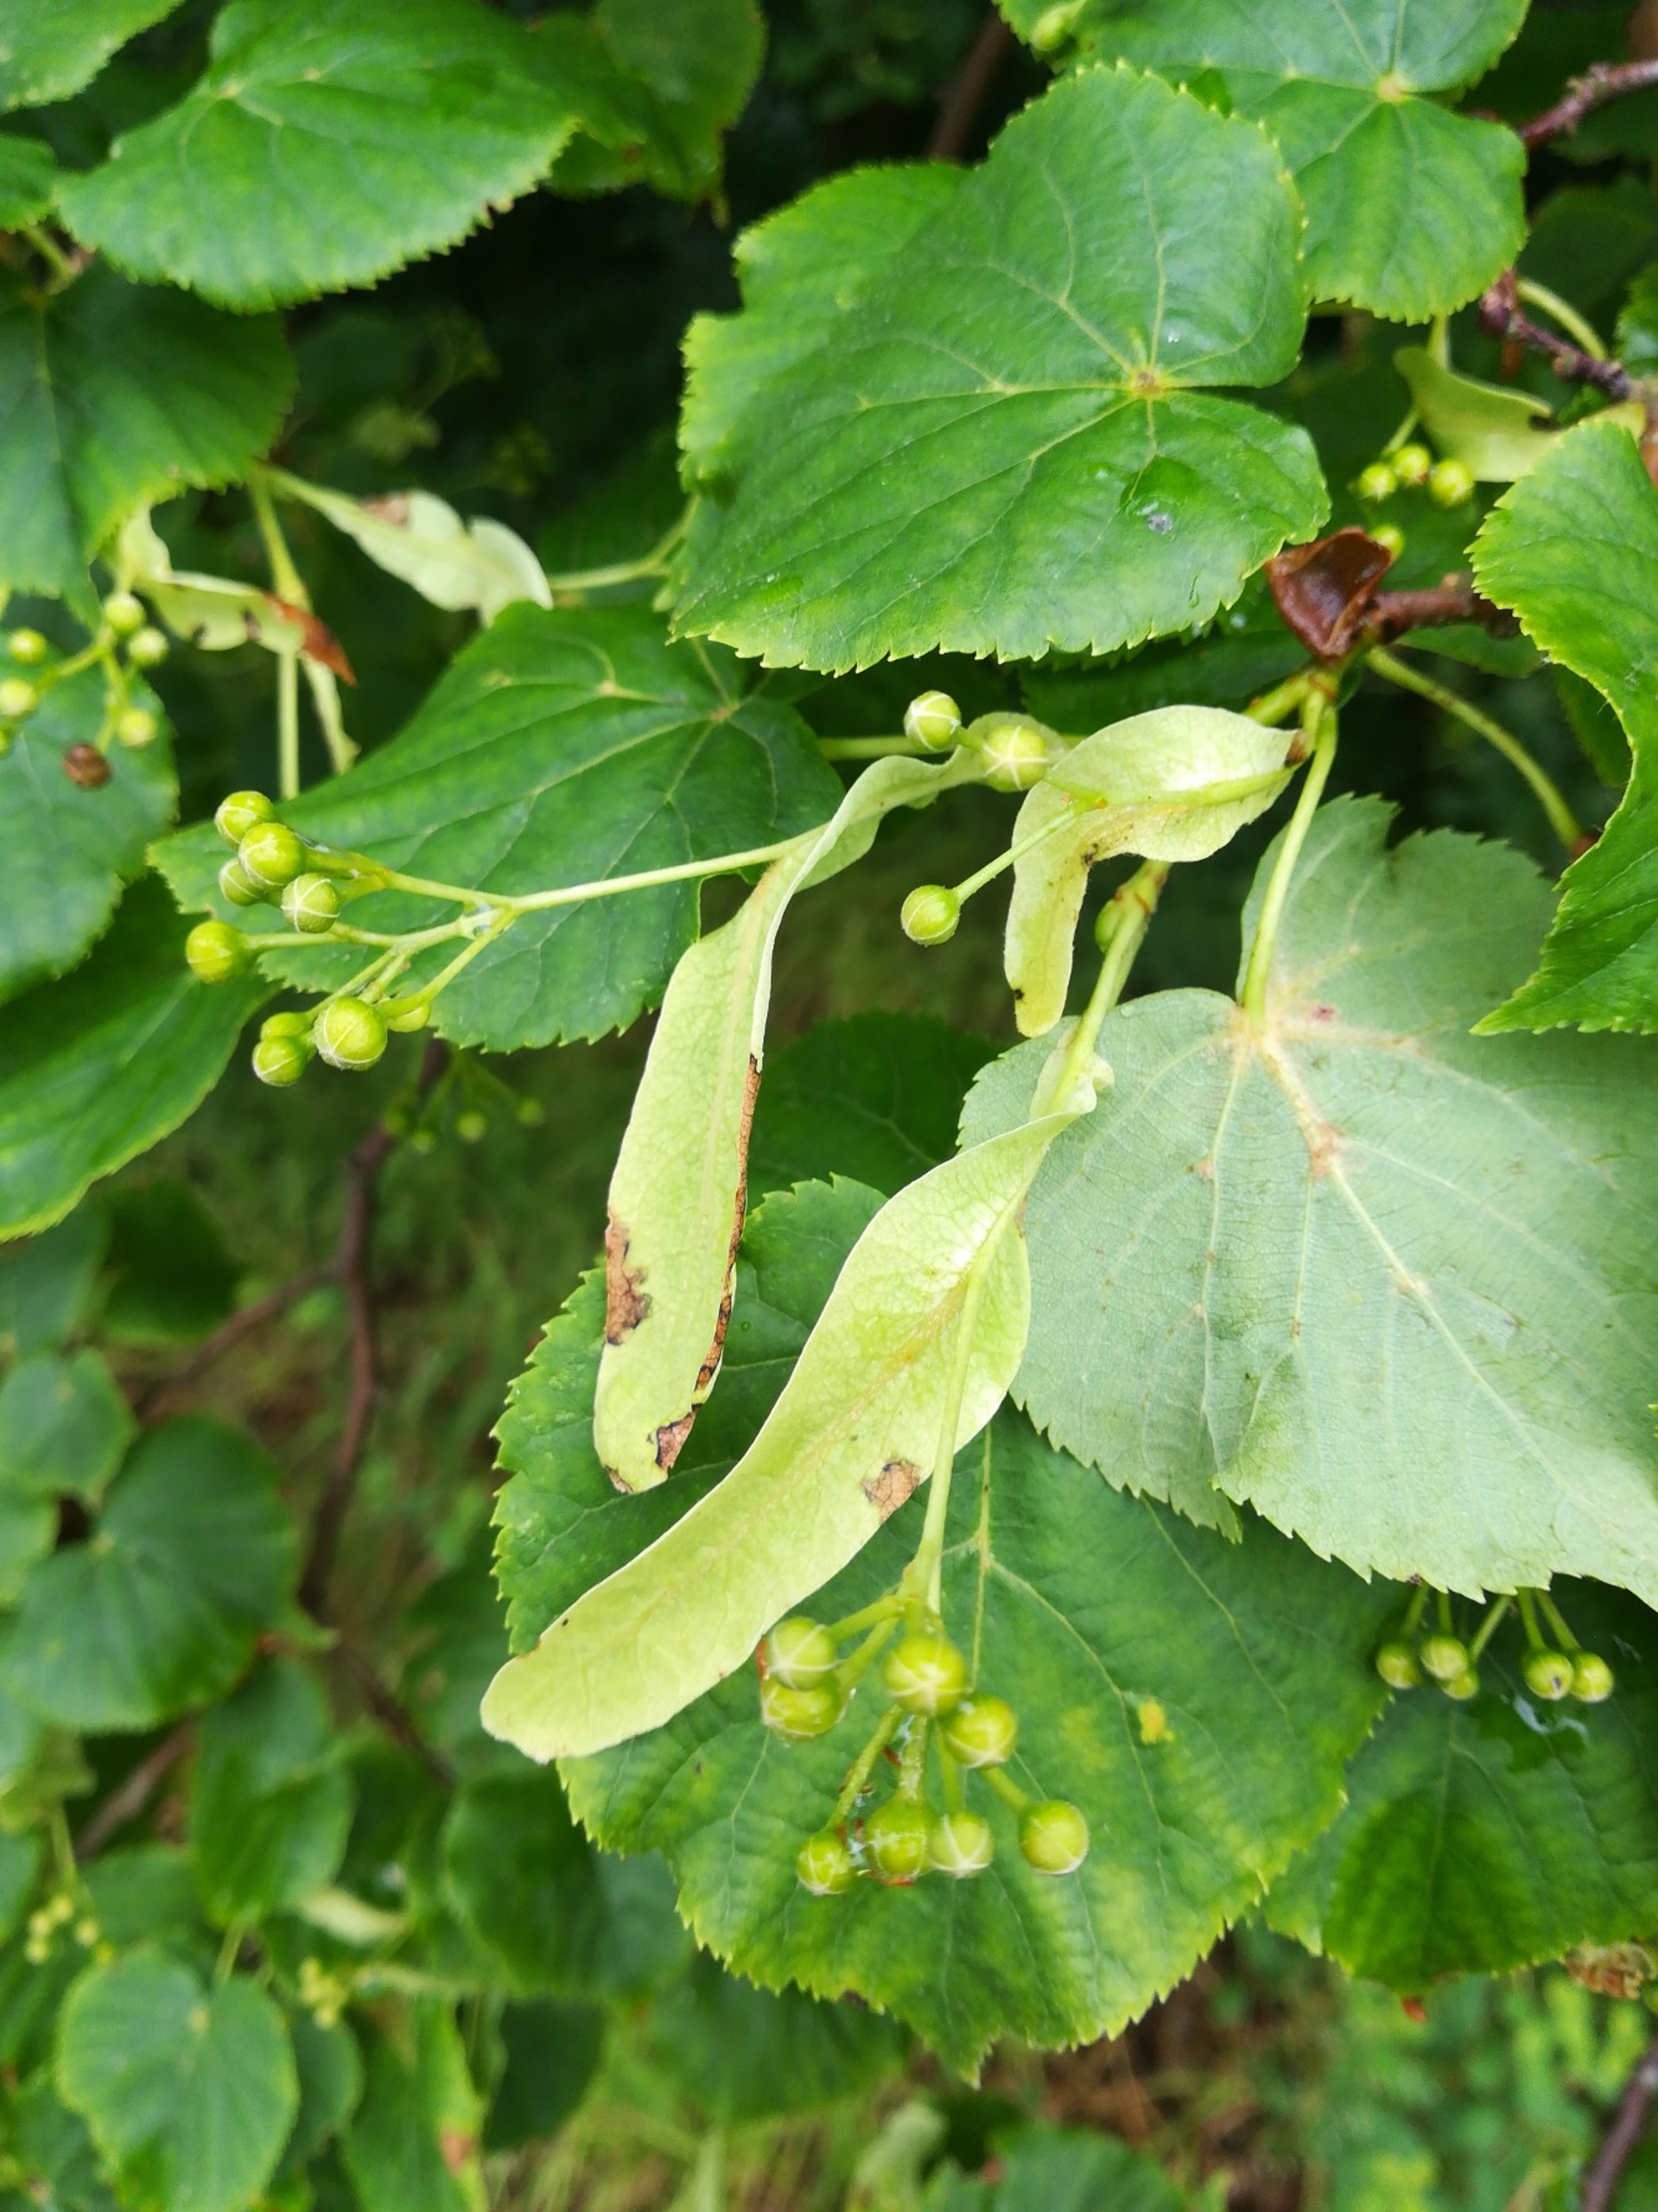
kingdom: Plantae
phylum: Tracheophyta
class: Magnoliopsida
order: Malvales
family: Malvaceae
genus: Tilia
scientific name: Tilia cordata
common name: Småbladet lind
